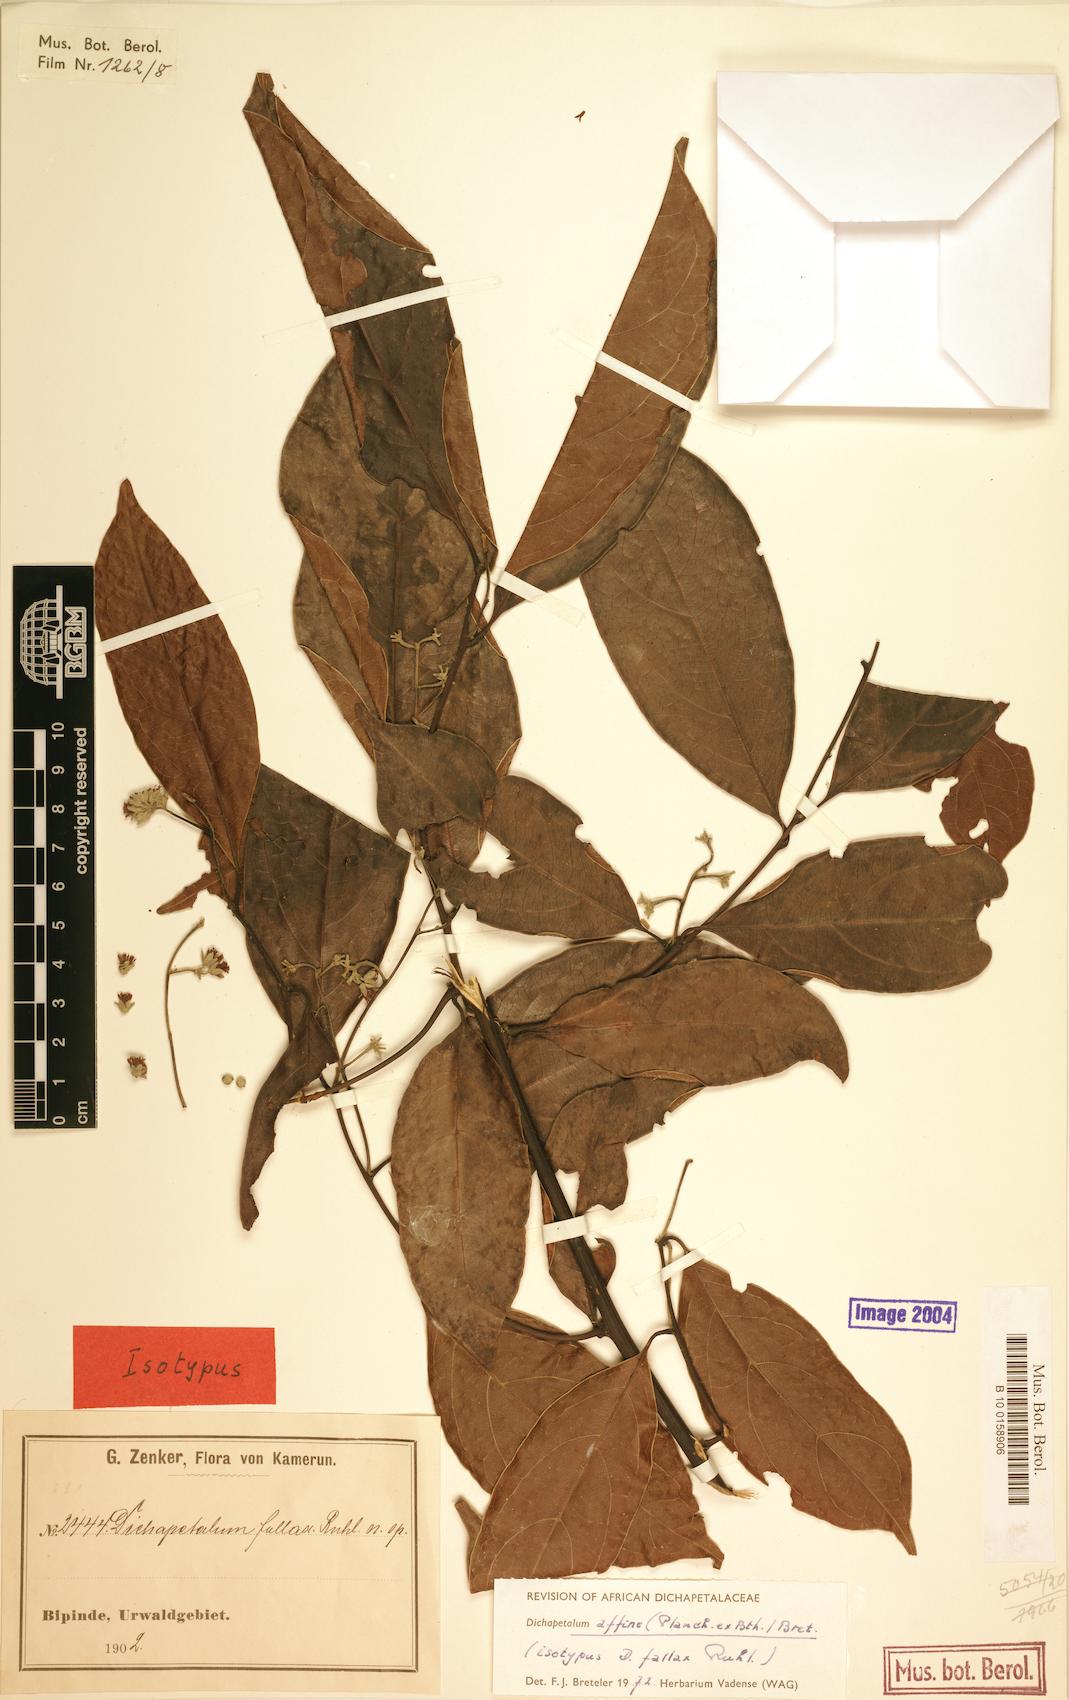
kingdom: Plantae
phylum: Tracheophyta
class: Magnoliopsida
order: Malpighiales
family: Dichapetalaceae
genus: Dichapetalum
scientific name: Dichapetalum affine
